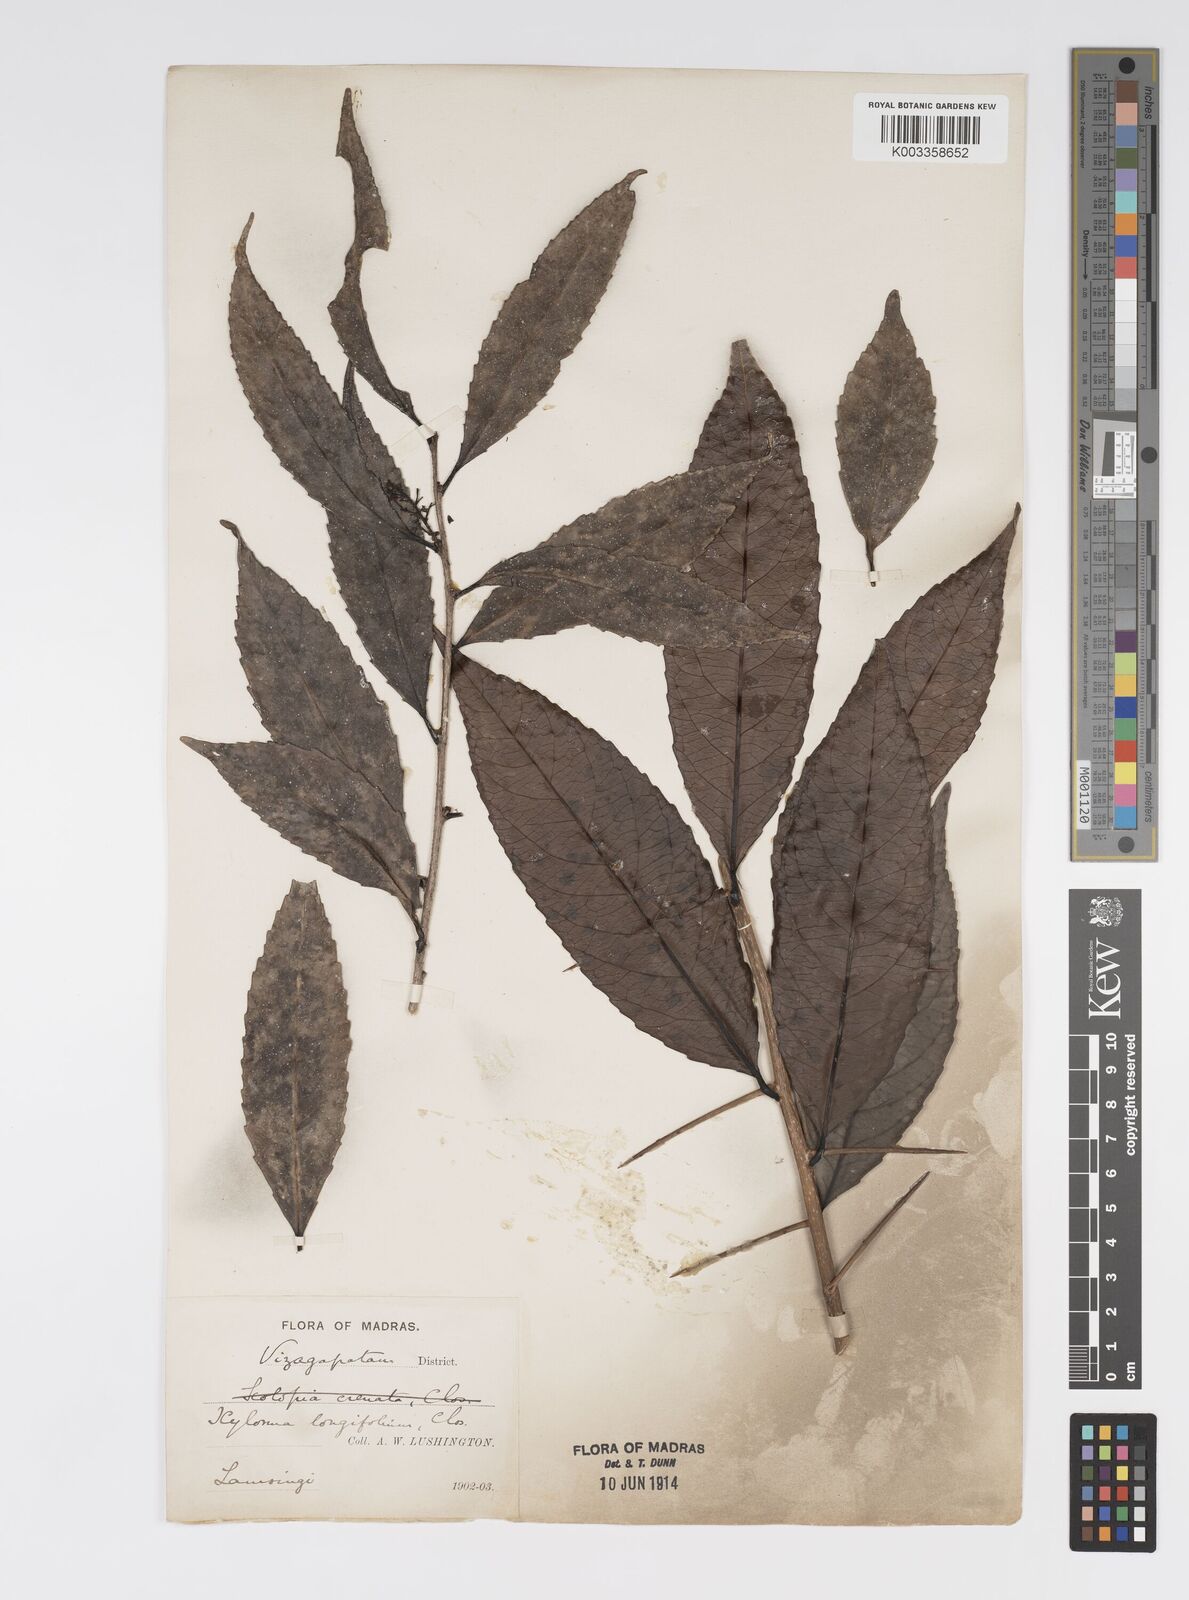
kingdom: Plantae
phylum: Tracheophyta
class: Magnoliopsida
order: Malpighiales
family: Salicaceae
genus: Xylosma
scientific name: Xylosma longifolia
